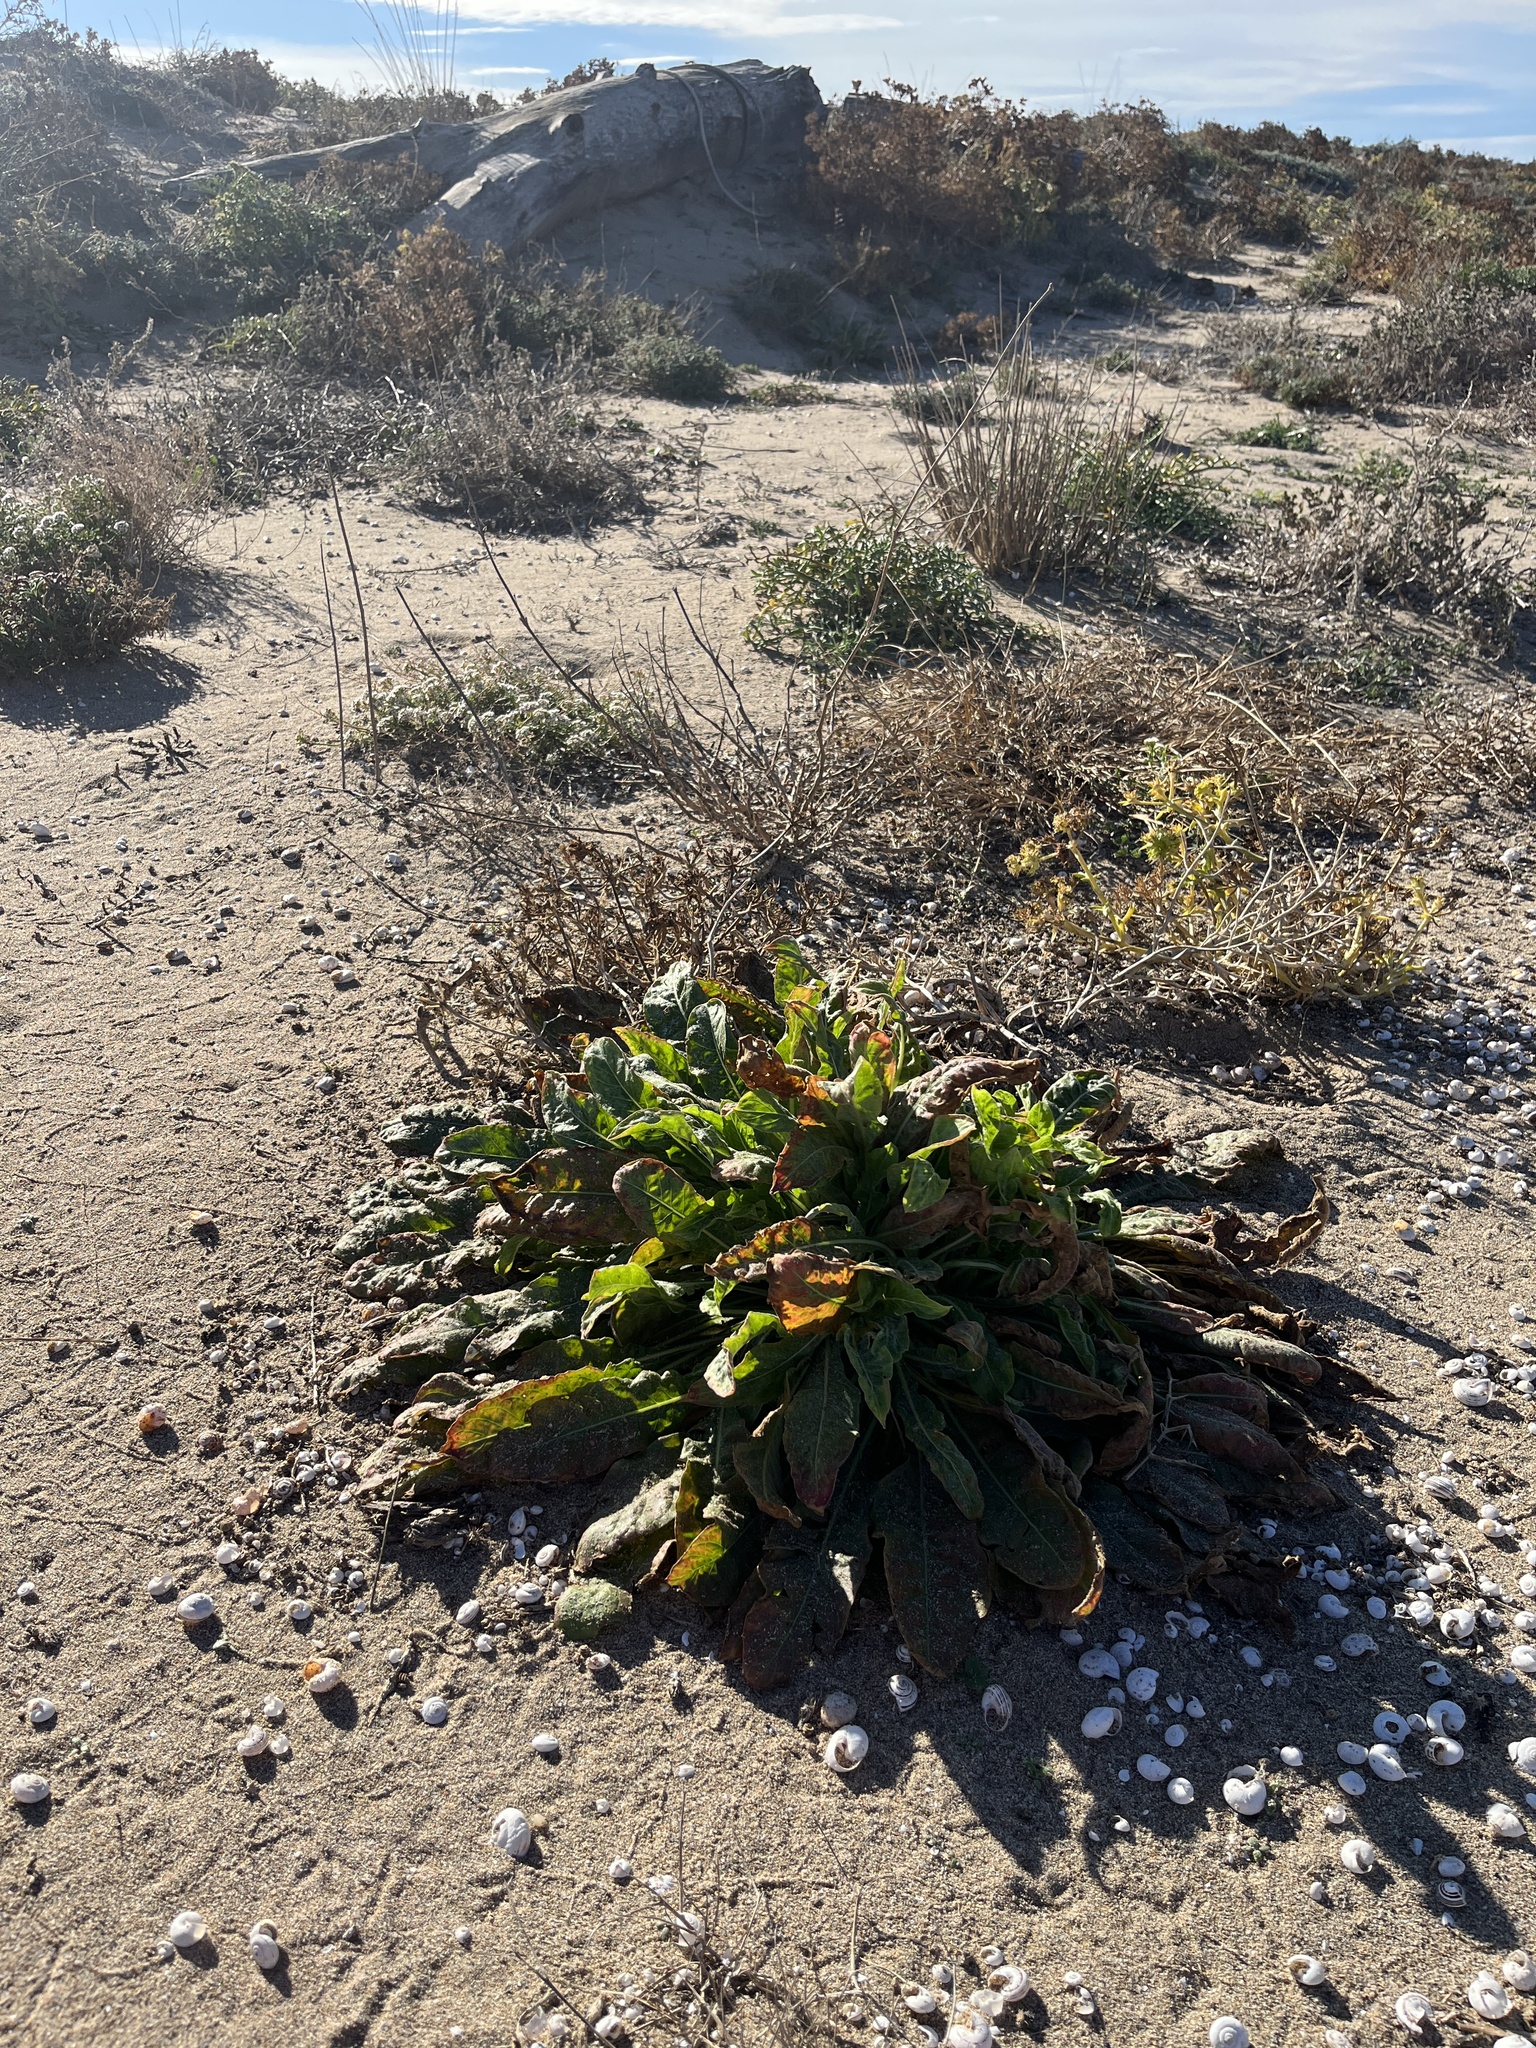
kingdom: Plantae
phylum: Tracheophyta
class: Magnoliopsida
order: Myrtales
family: Onagraceae
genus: Oenothera
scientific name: Oenothera glazioviana
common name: Large-flowered evening-primrose
